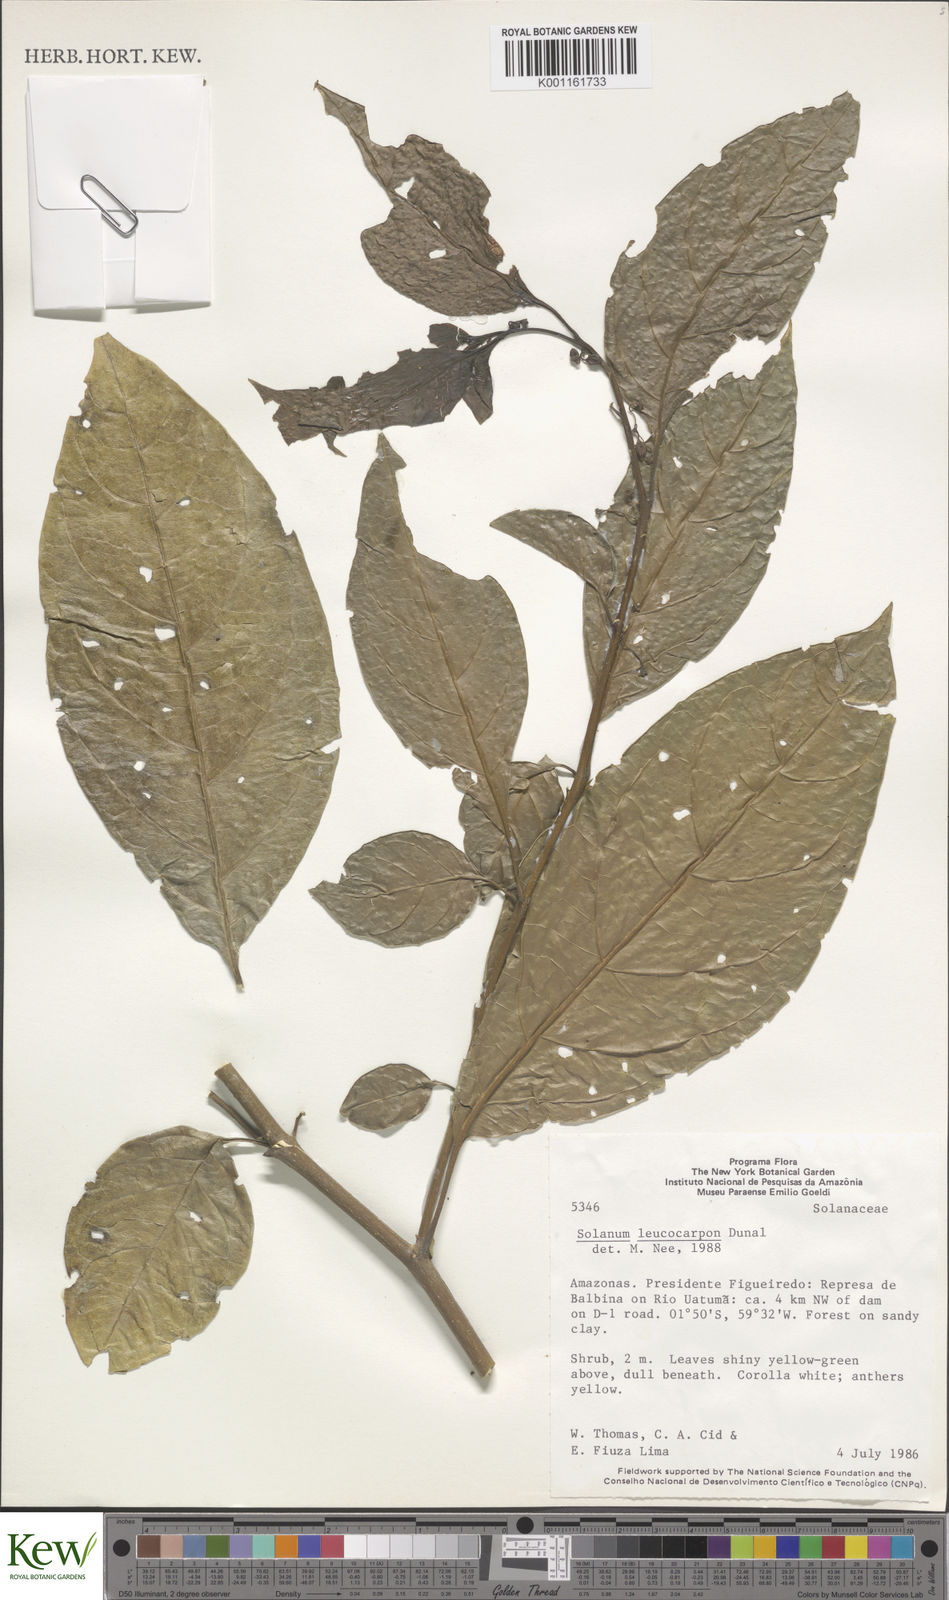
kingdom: Plantae
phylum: Tracheophyta
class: Magnoliopsida
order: Solanales
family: Solanaceae
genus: Solanum
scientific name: Solanum leucocarpon
